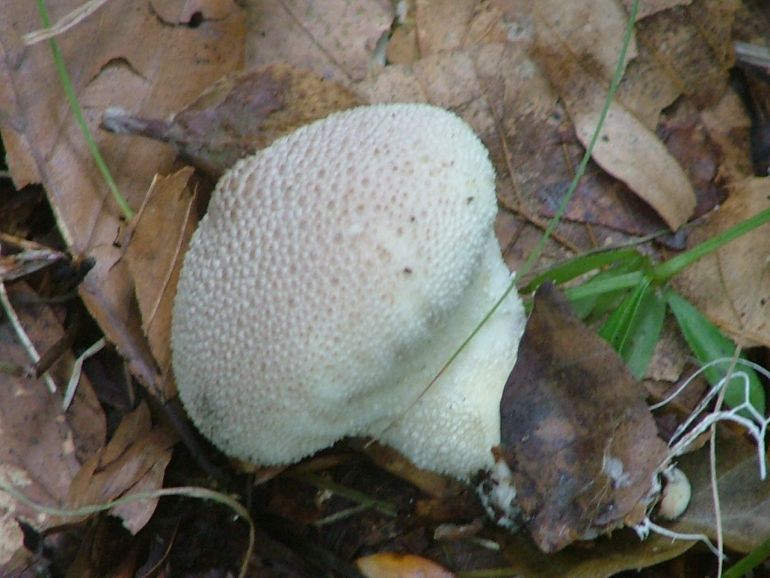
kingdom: Fungi
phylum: Basidiomycota
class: Agaricomycetes
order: Agaricales
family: Lycoperdaceae
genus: Lycoperdon
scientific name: Lycoperdon perlatum
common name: krystal-støvbold
